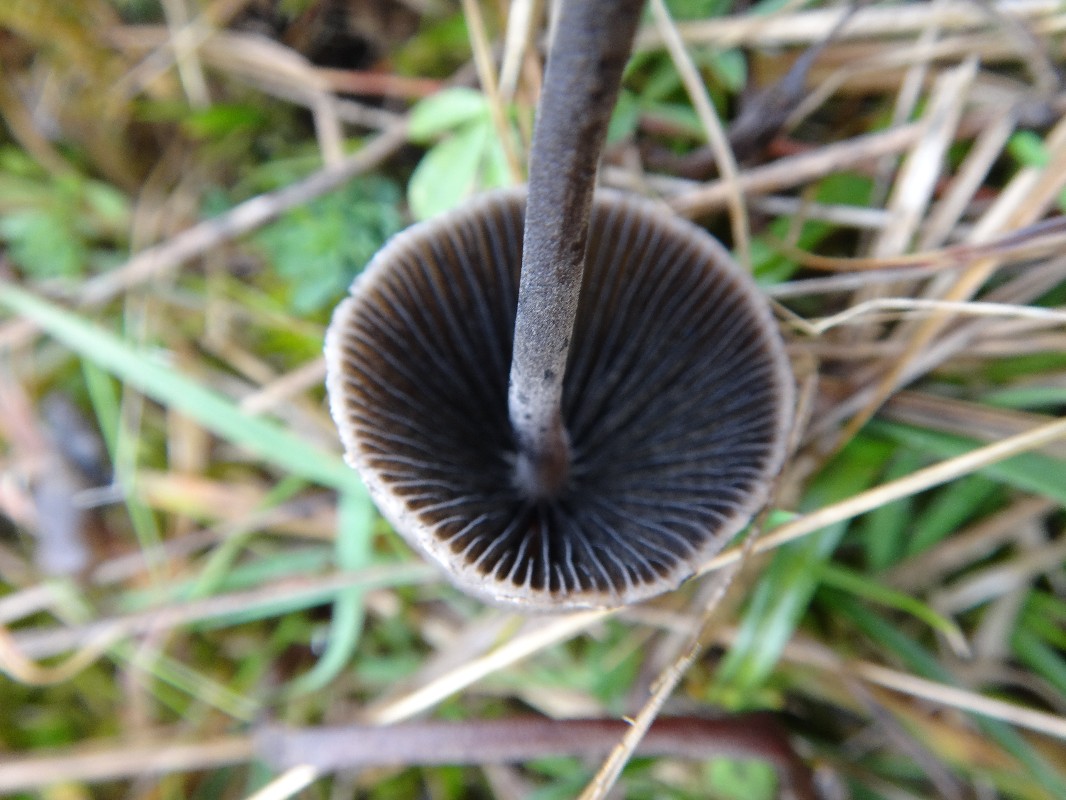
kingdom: Fungi
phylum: Basidiomycota
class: Agaricomycetes
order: Agaricales
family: Bolbitiaceae
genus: Panaeolus
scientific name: Panaeolus papilionaceus
